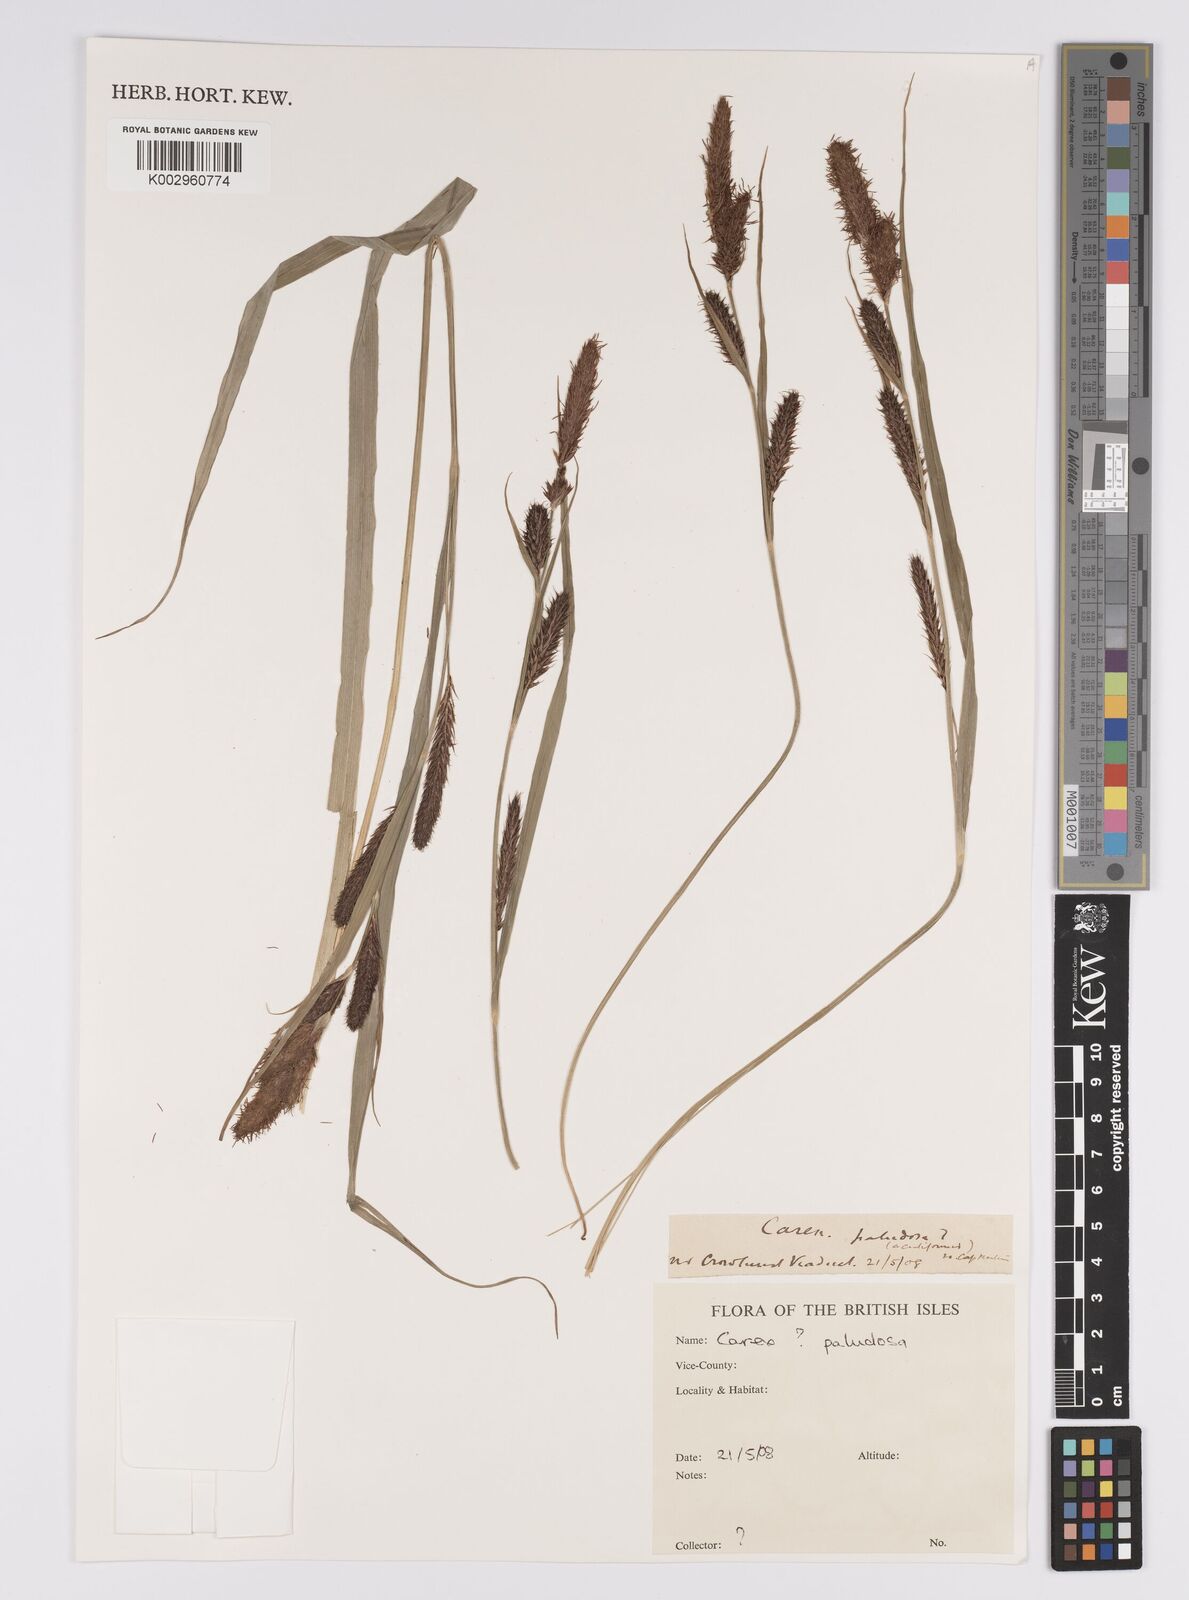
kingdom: Plantae
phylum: Tracheophyta
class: Liliopsida
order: Poales
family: Cyperaceae
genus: Carex
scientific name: Carex acutiformis
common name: Lesser pond-sedge
